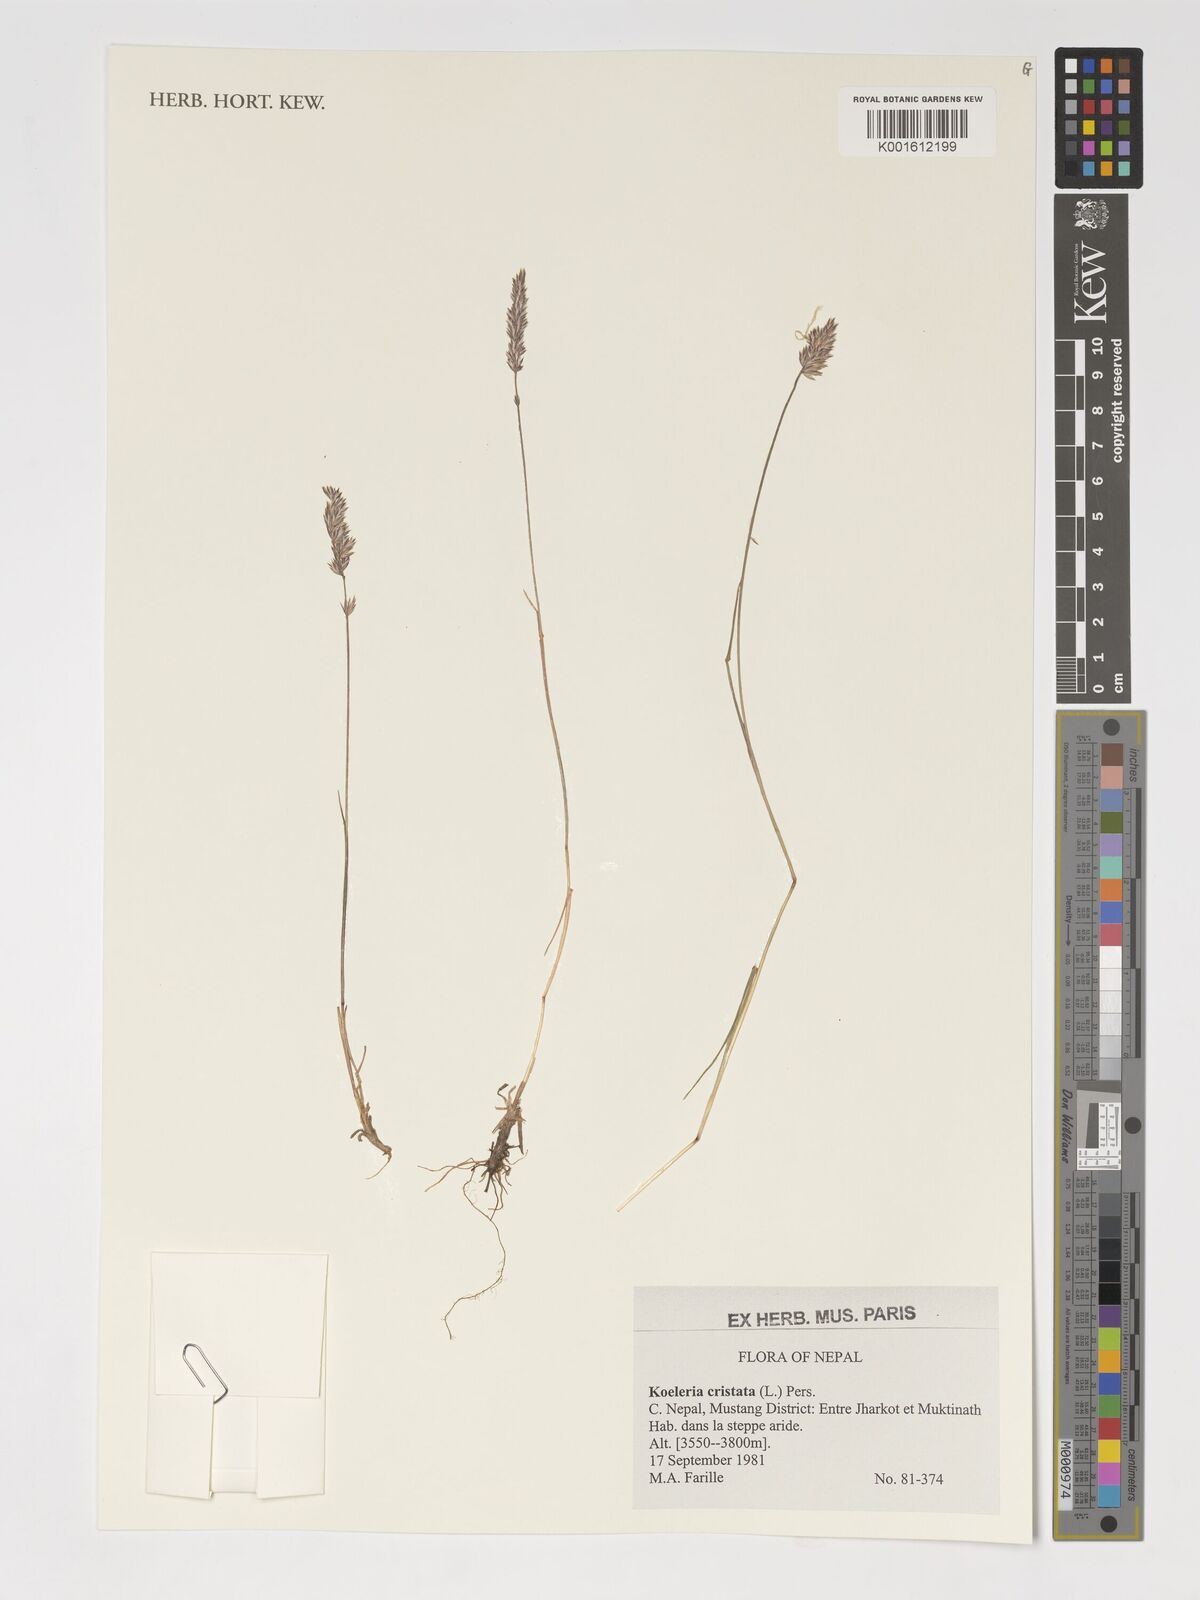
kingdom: Plantae
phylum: Tracheophyta
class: Liliopsida
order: Poales
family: Poaceae
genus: Koeleria
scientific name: Koeleria pyramidata
